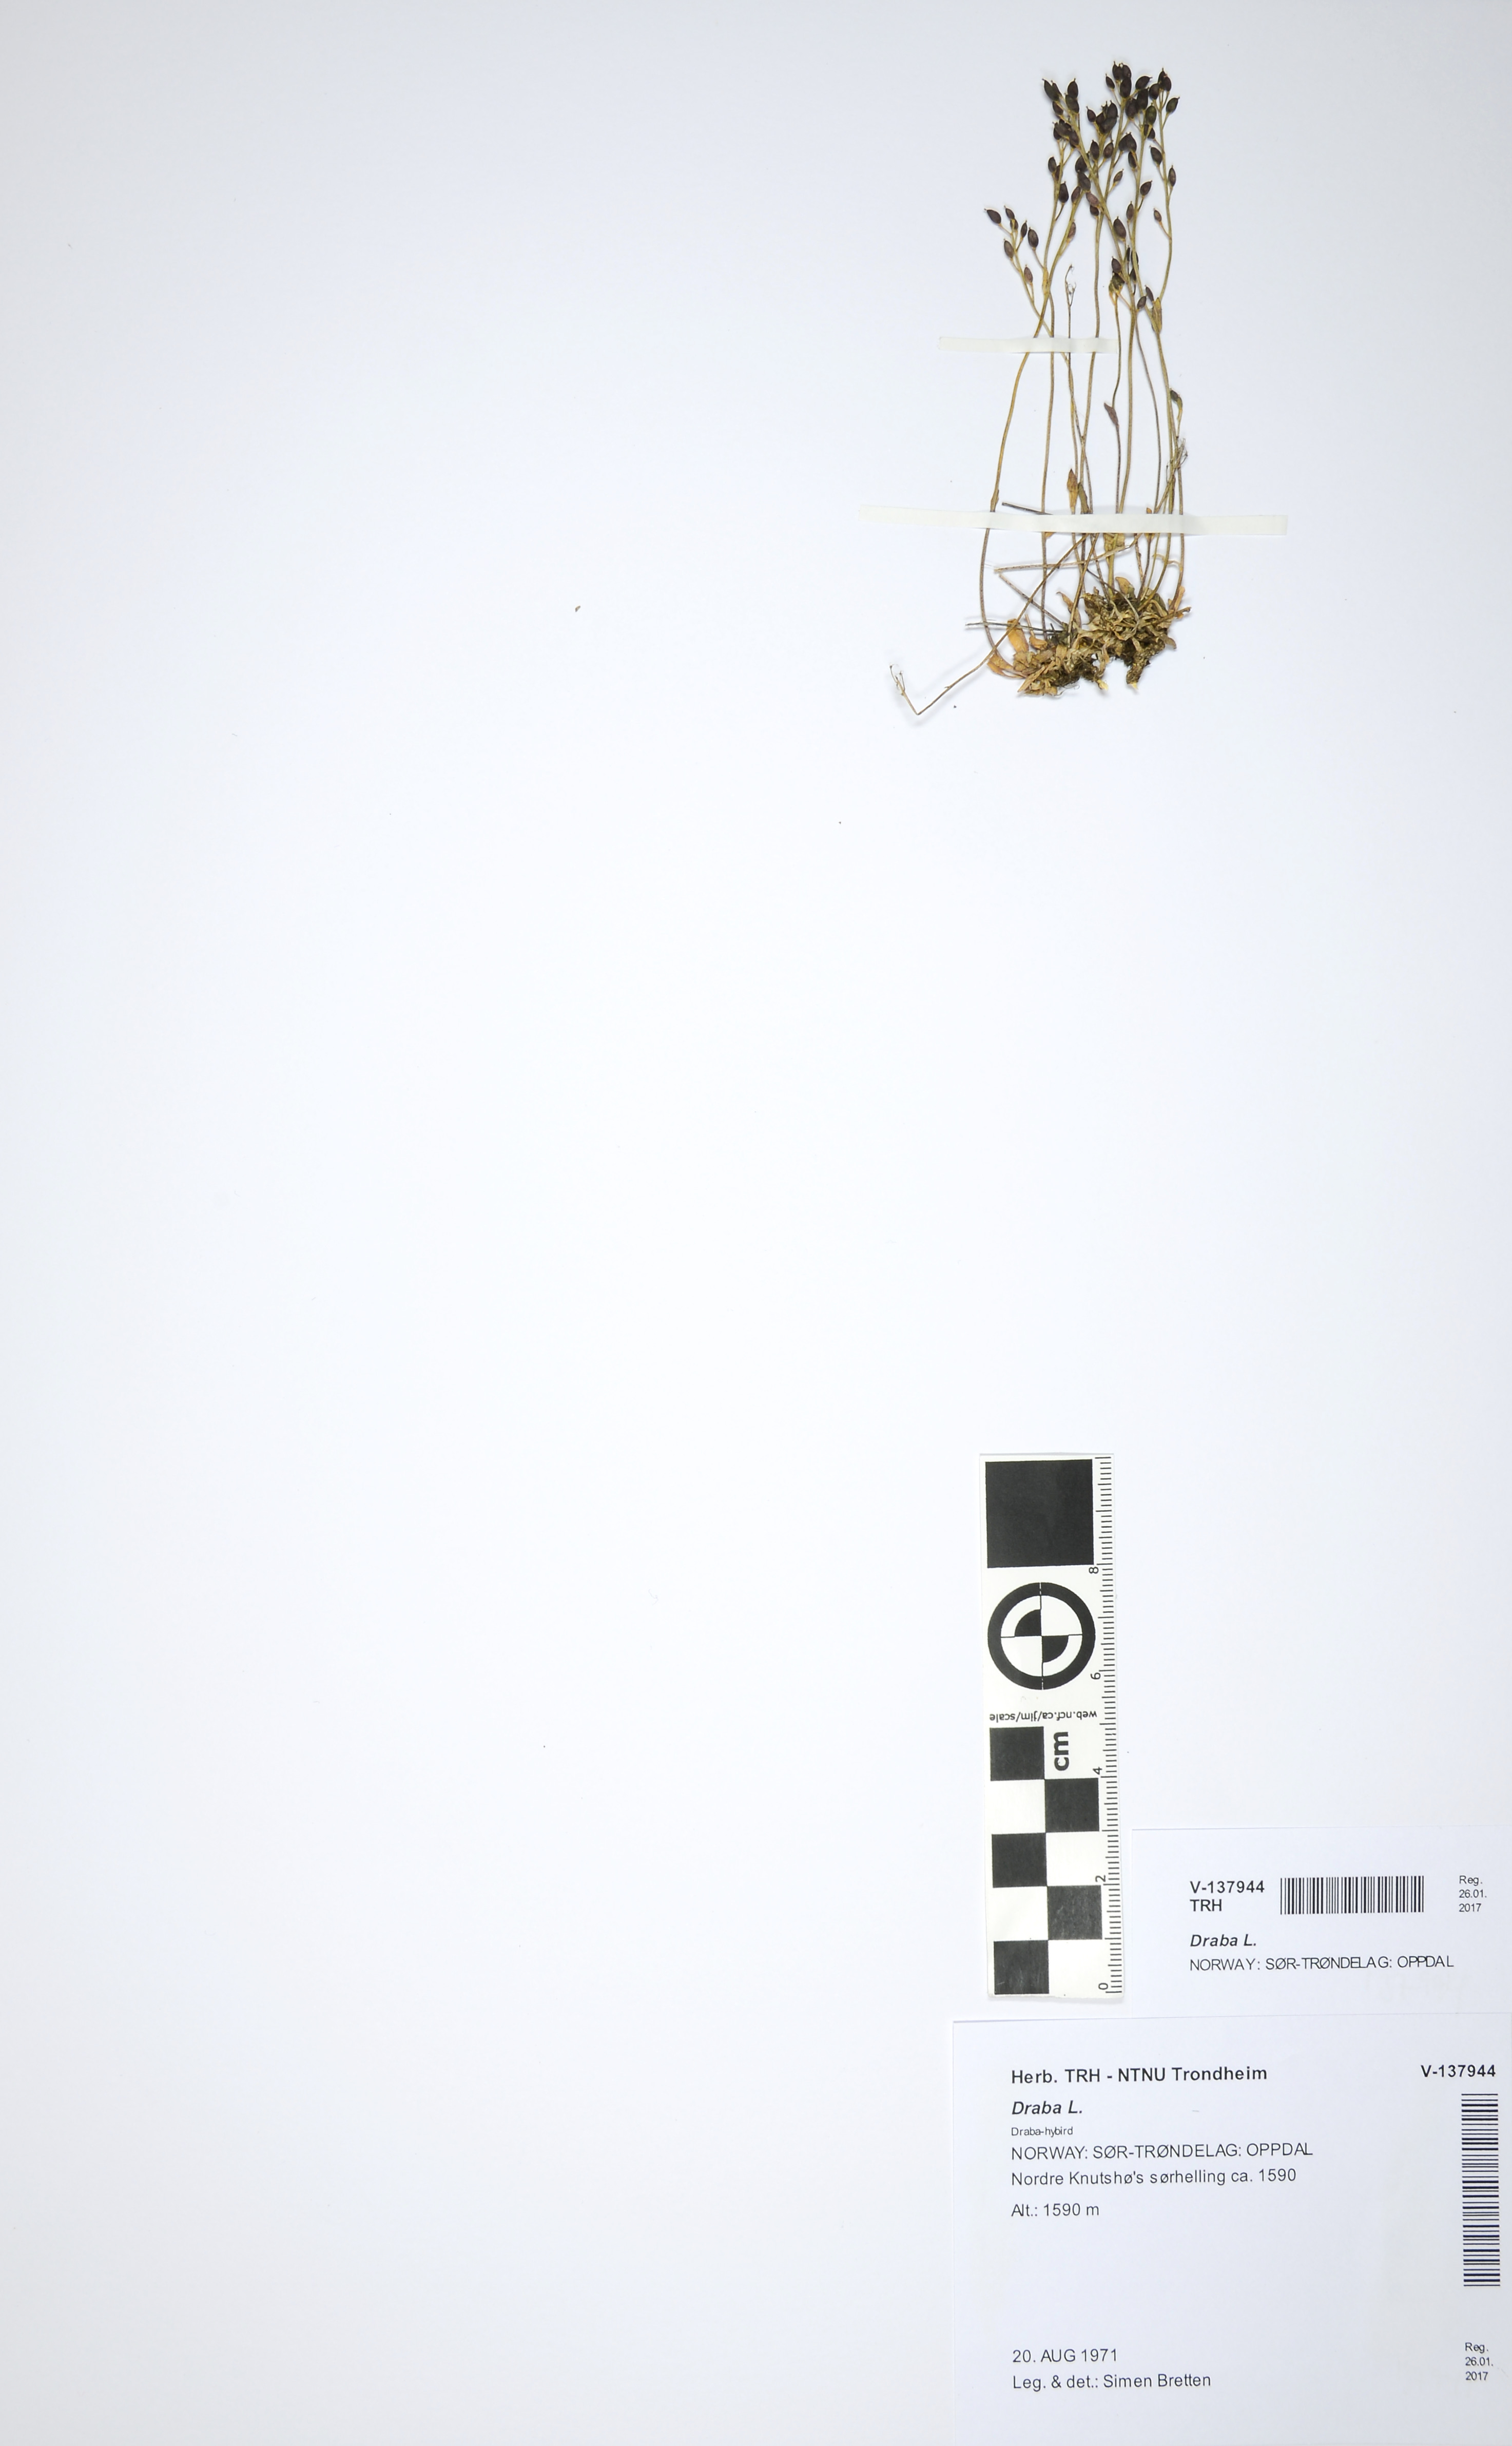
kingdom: Plantae
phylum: Tracheophyta
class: Magnoliopsida
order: Brassicales
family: Brassicaceae
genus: Draba
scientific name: Draba
